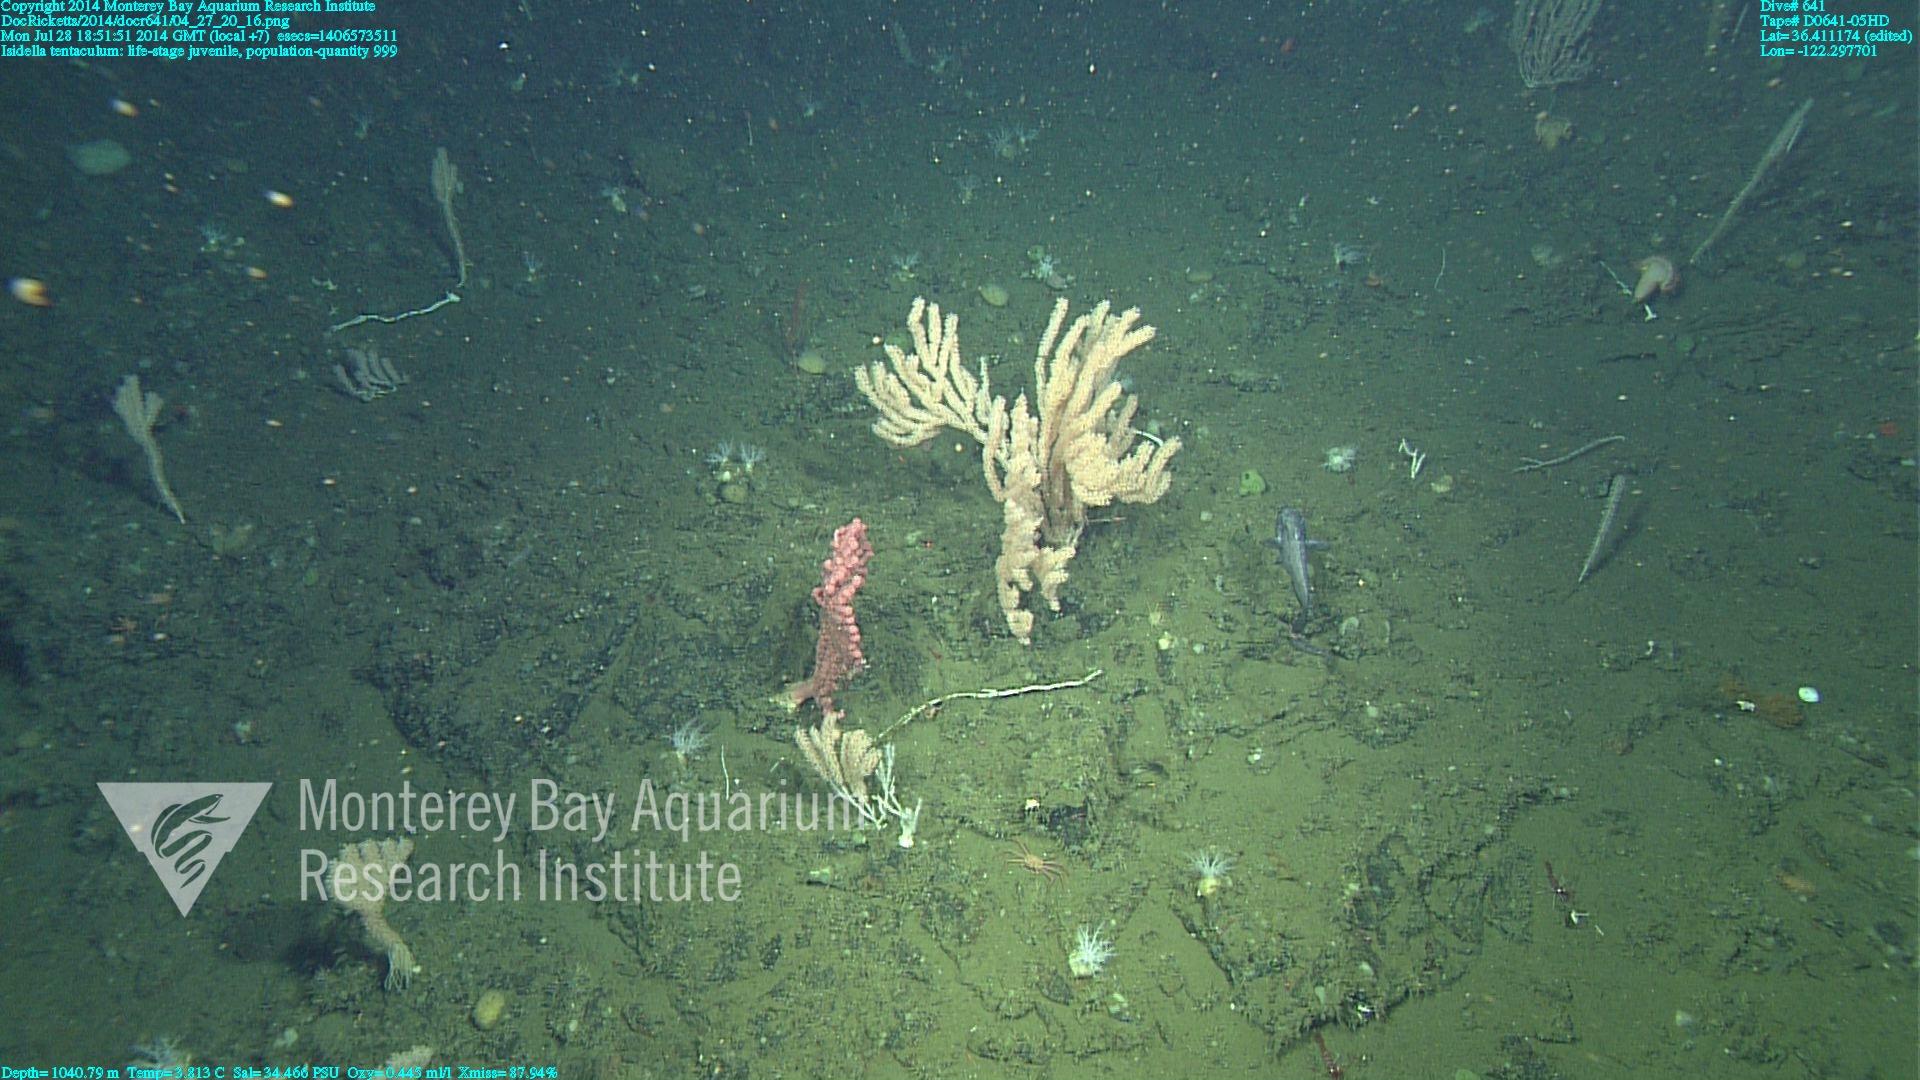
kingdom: Animalia
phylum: Cnidaria
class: Anthozoa
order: Scleralcyonacea
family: Keratoisididae
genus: Isidella
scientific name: Isidella tentaculum
